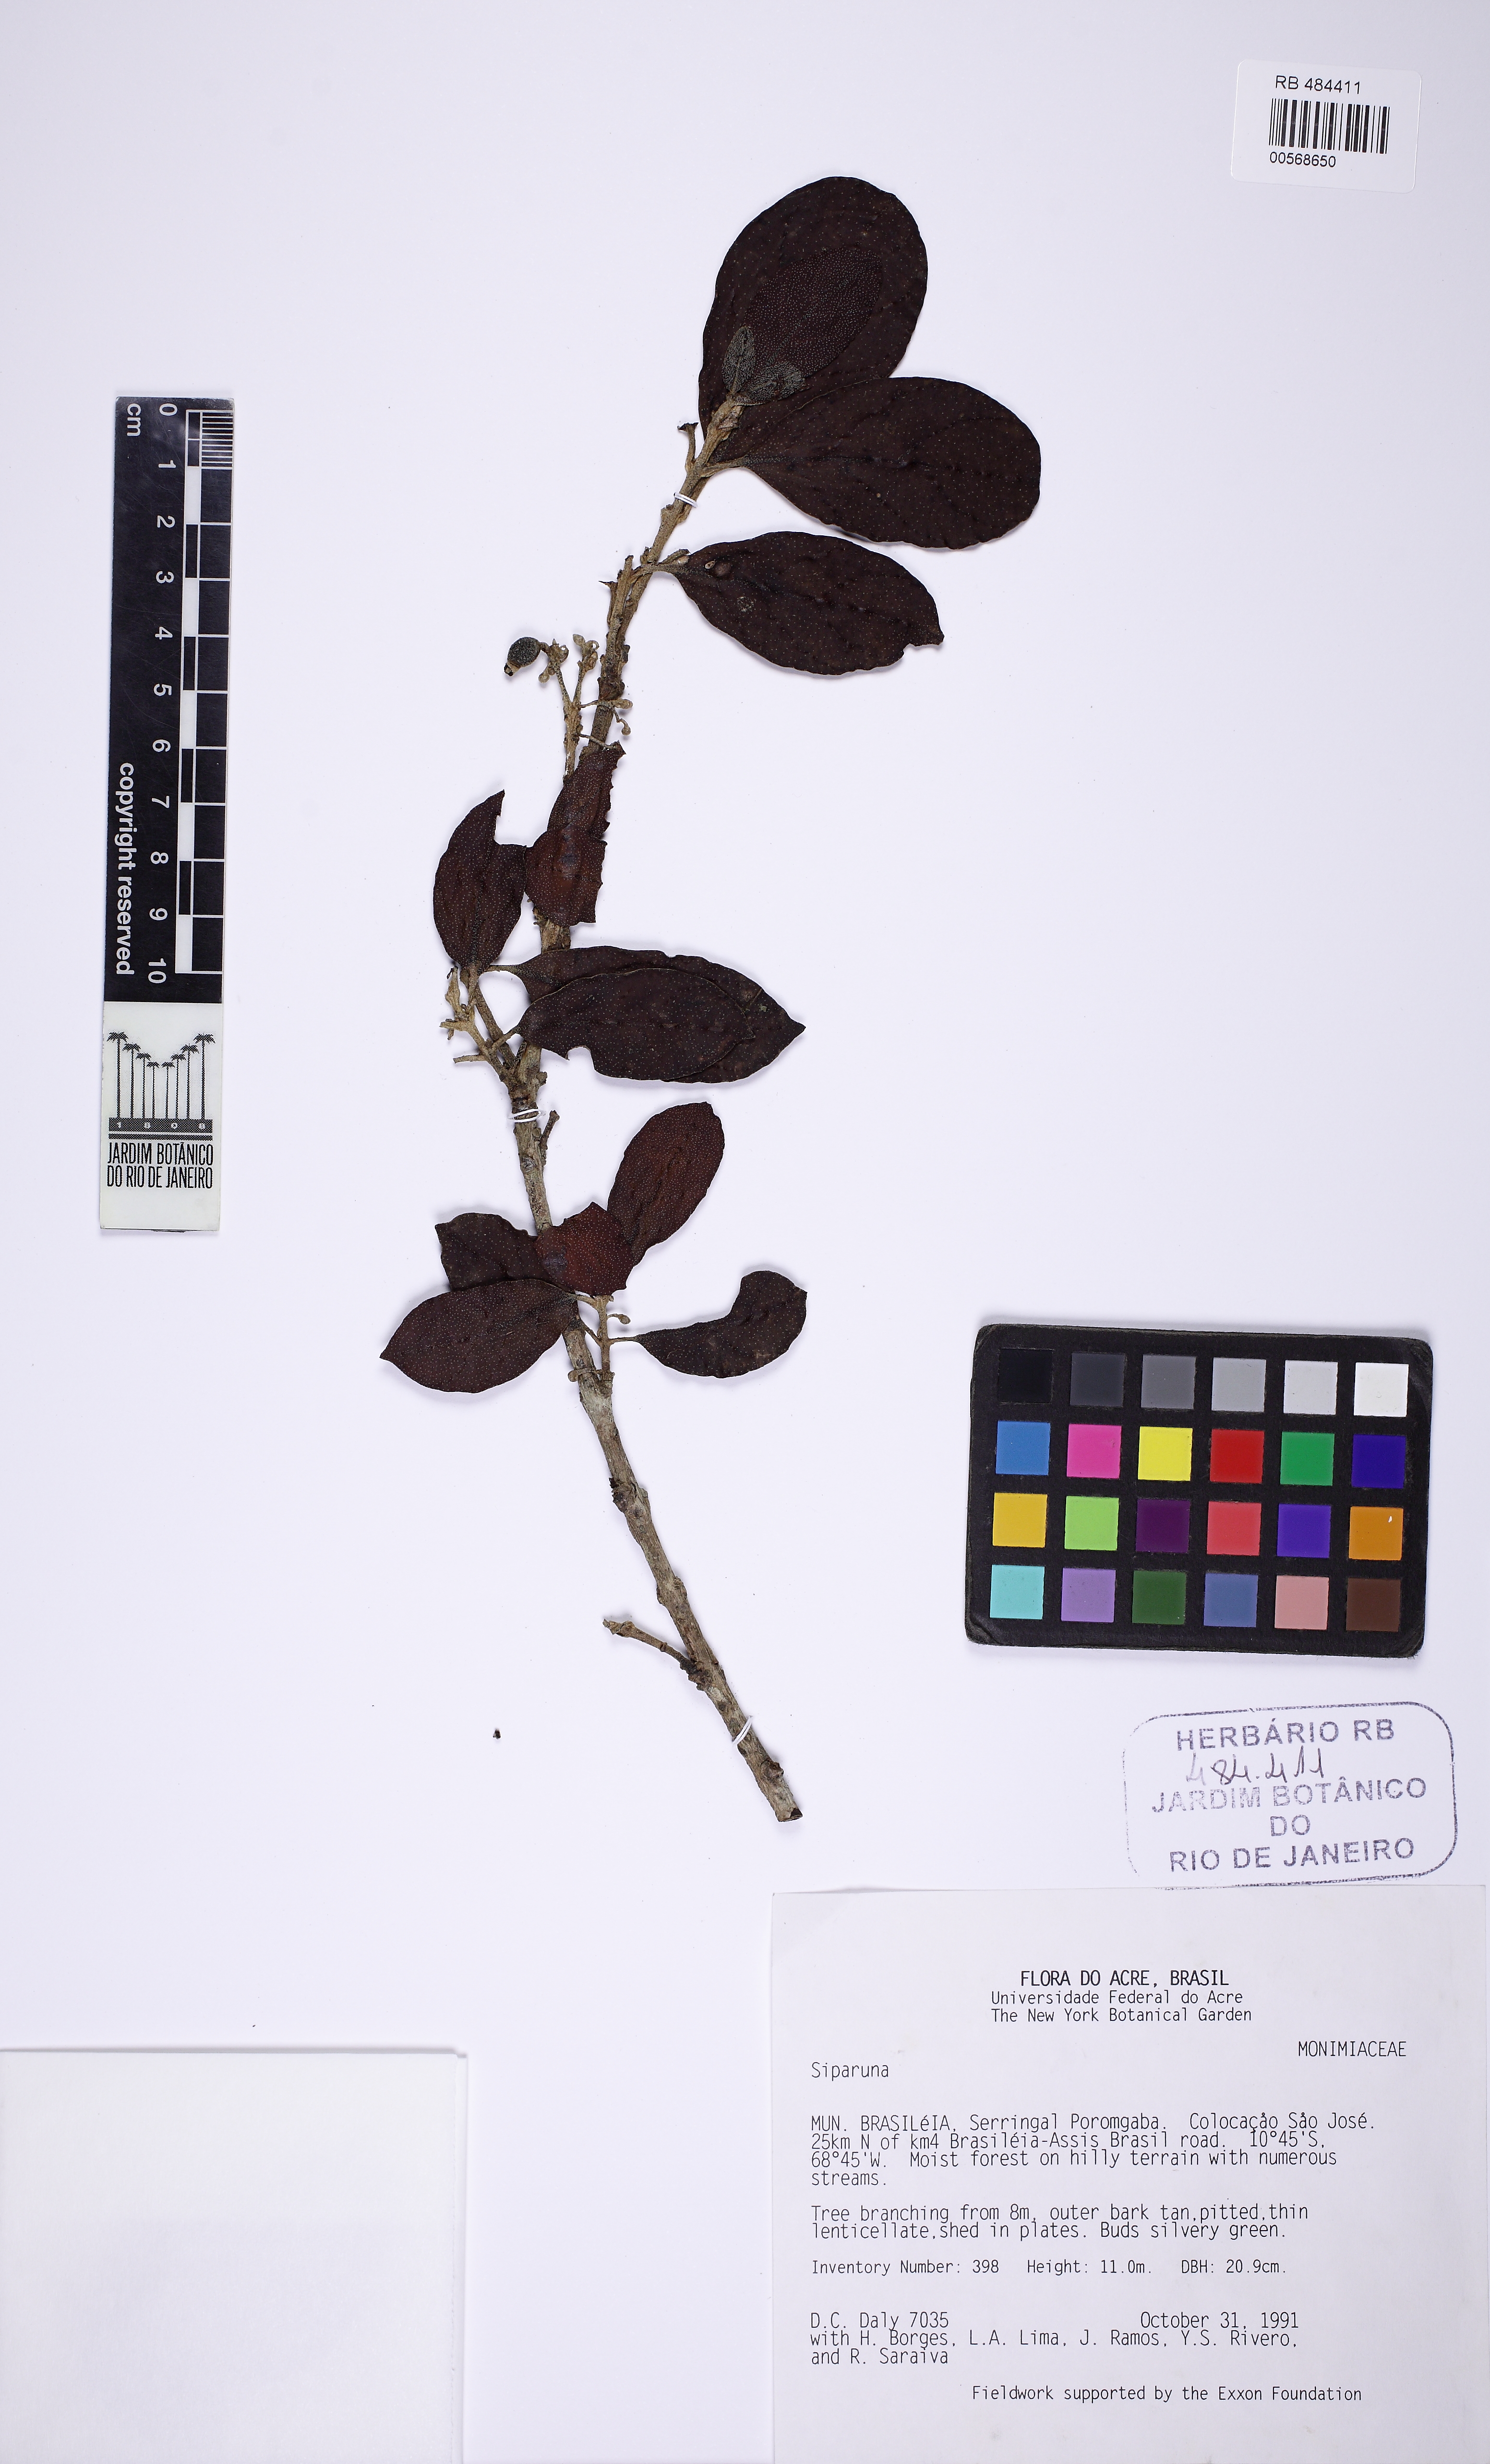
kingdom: Plantae
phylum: Tracheophyta
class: Magnoliopsida
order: Laurales
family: Siparunaceae
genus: Siparuna
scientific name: Siparuna decipiens
